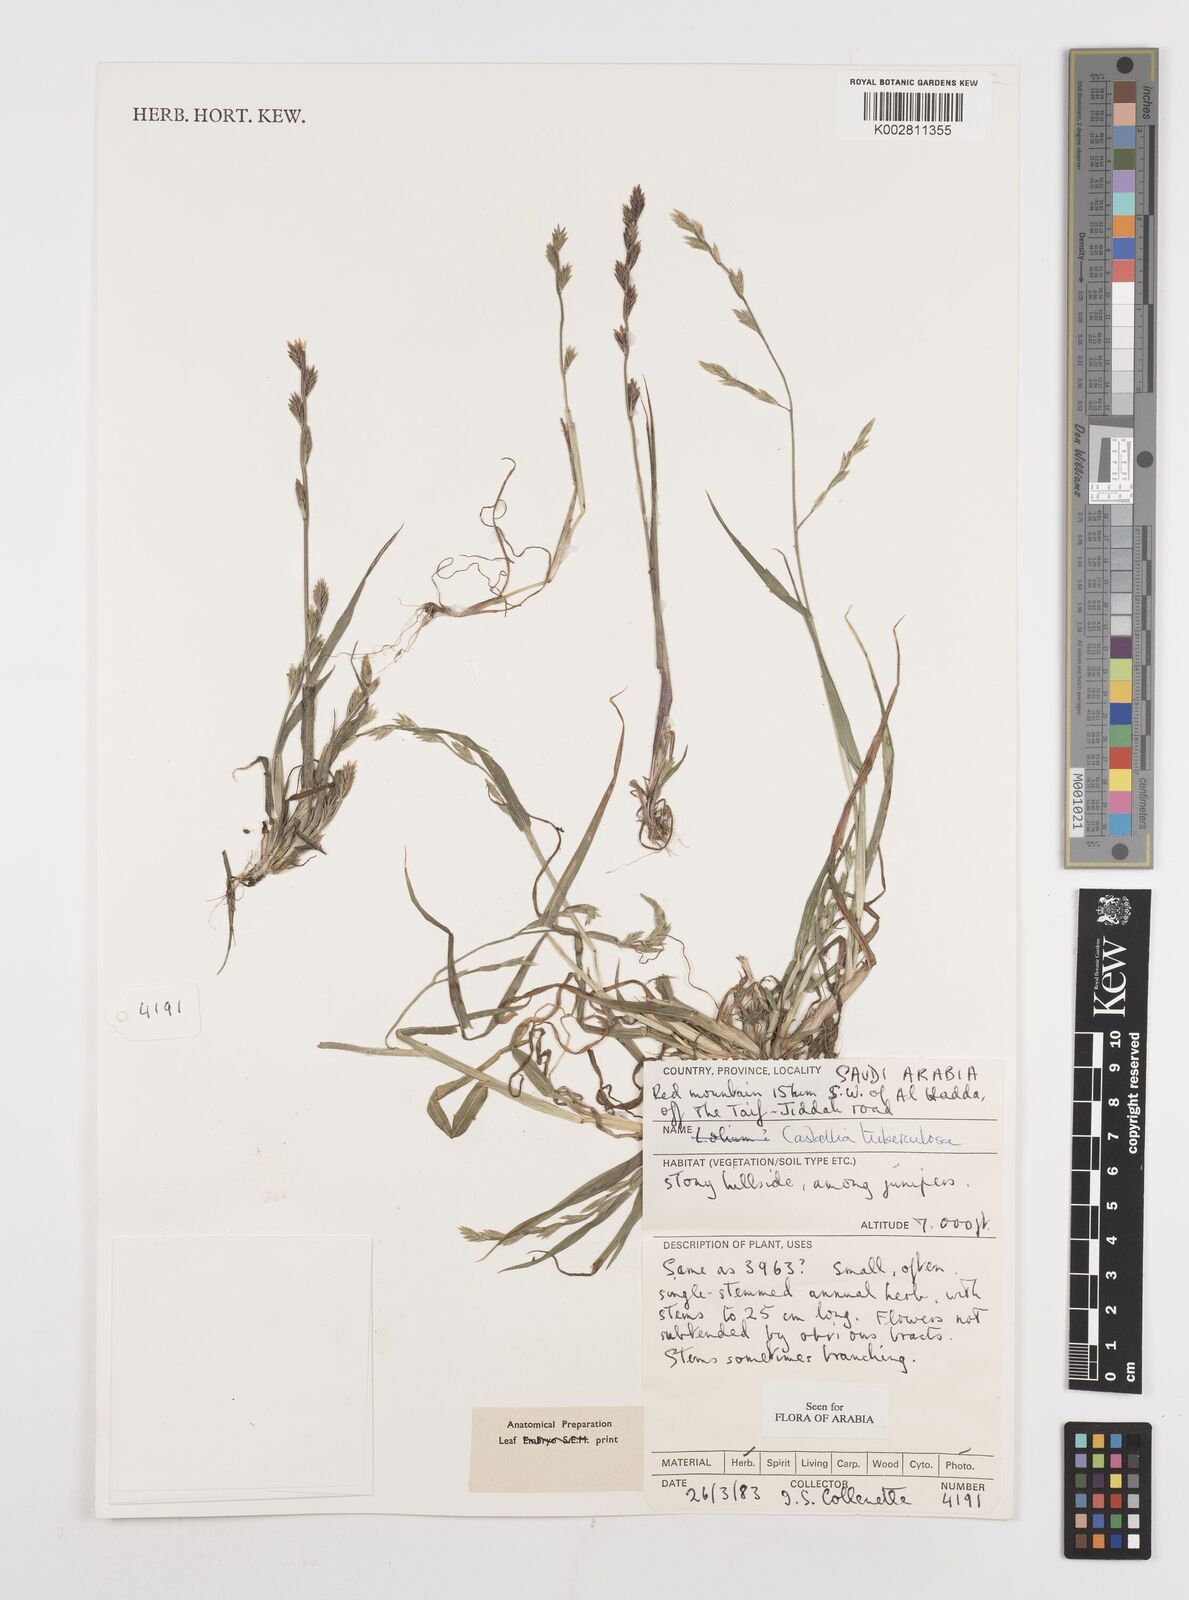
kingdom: Plantae
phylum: Tracheophyta
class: Liliopsida
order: Poales
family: Poaceae
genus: Castellia
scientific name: Castellia tuberculosa
